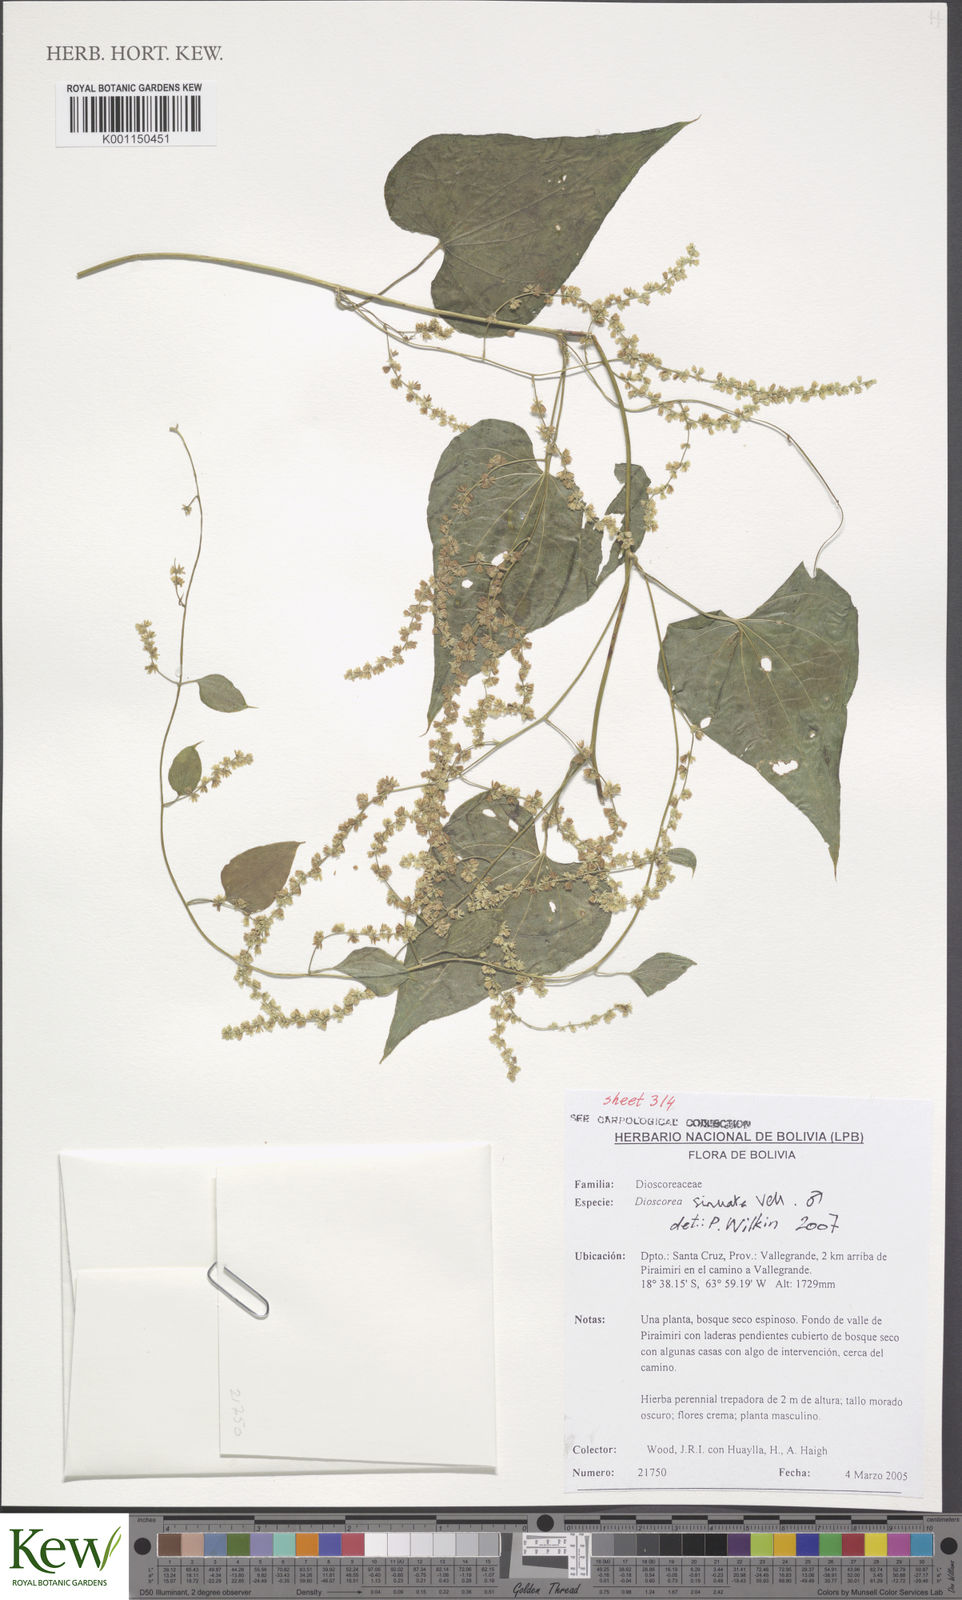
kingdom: Plantae
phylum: Tracheophyta
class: Liliopsida
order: Dioscoreales
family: Dioscoreaceae
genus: Dioscorea
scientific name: Dioscorea sinuata
